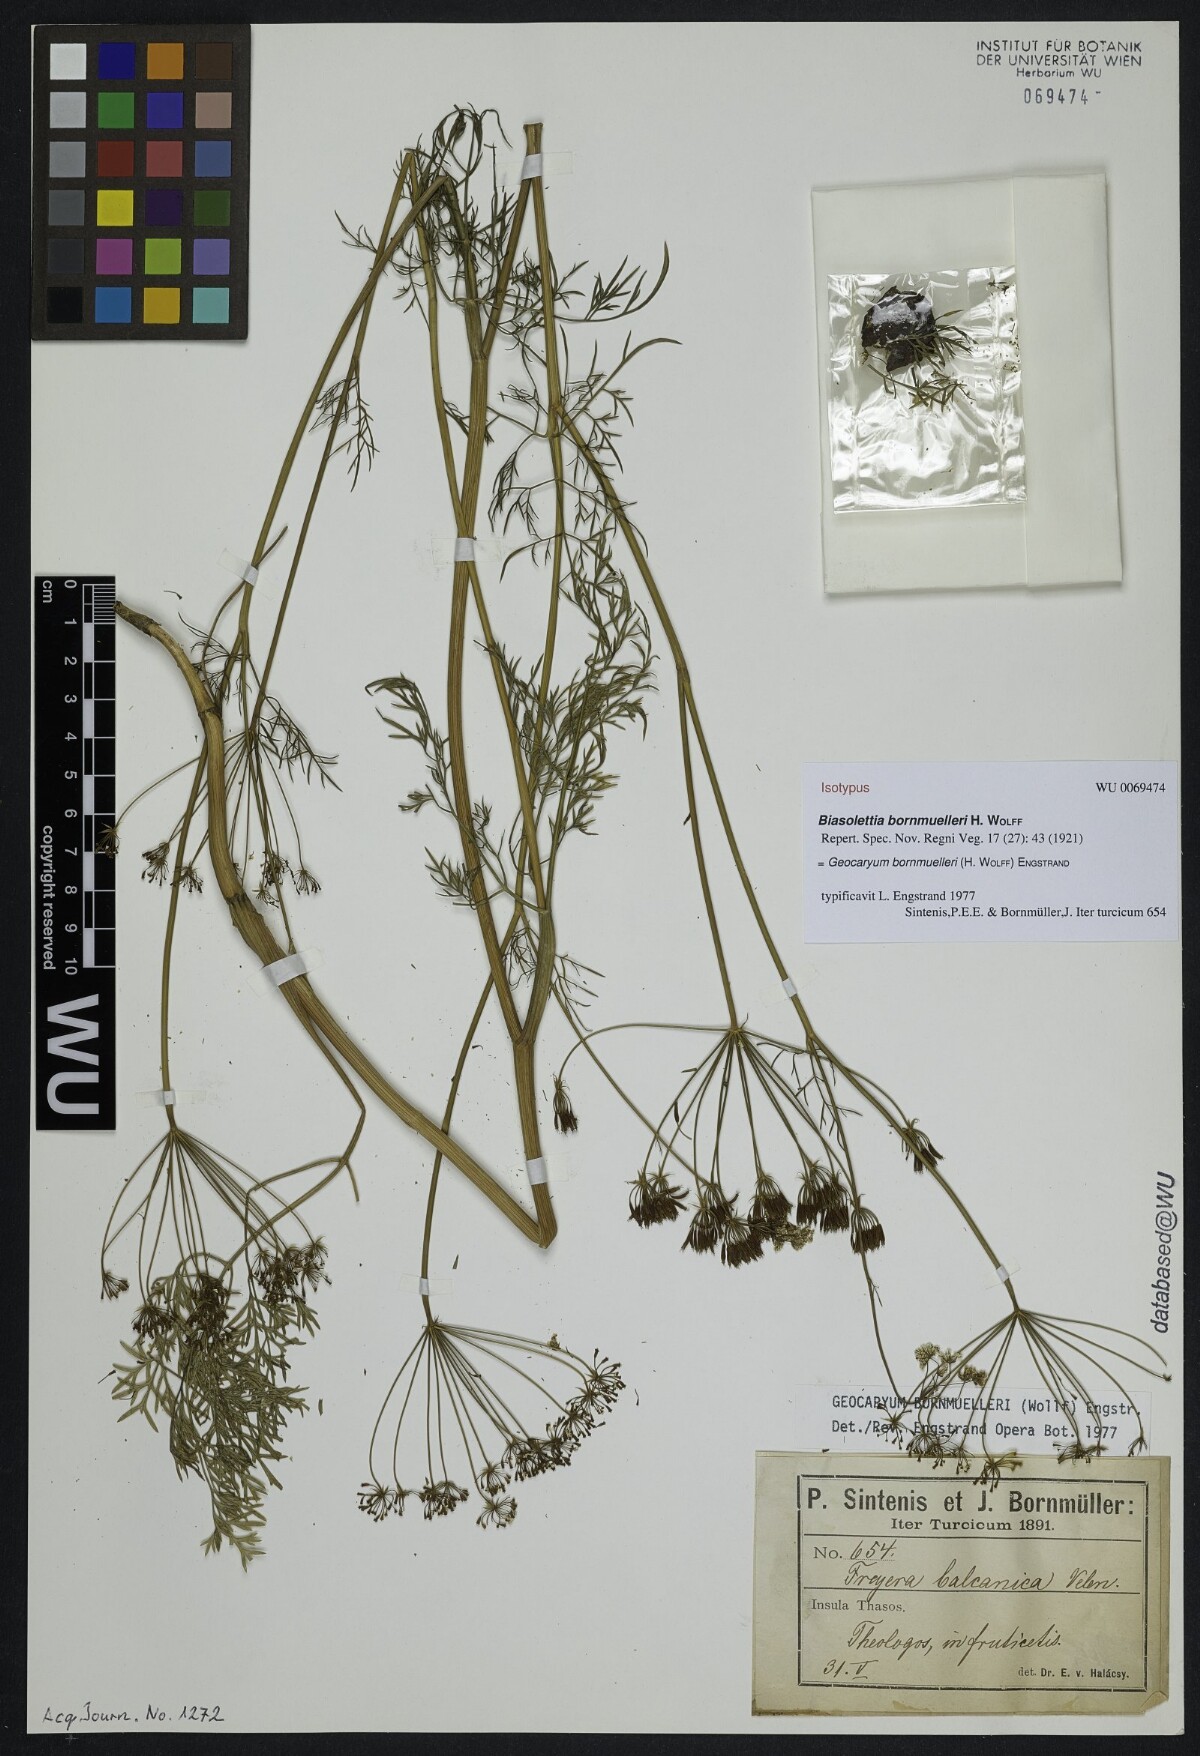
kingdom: Plantae
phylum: Tracheophyta
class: Magnoliopsida
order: Apiales
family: Apiaceae
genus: Geocaryum
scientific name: Geocaryum bornmuelleri
